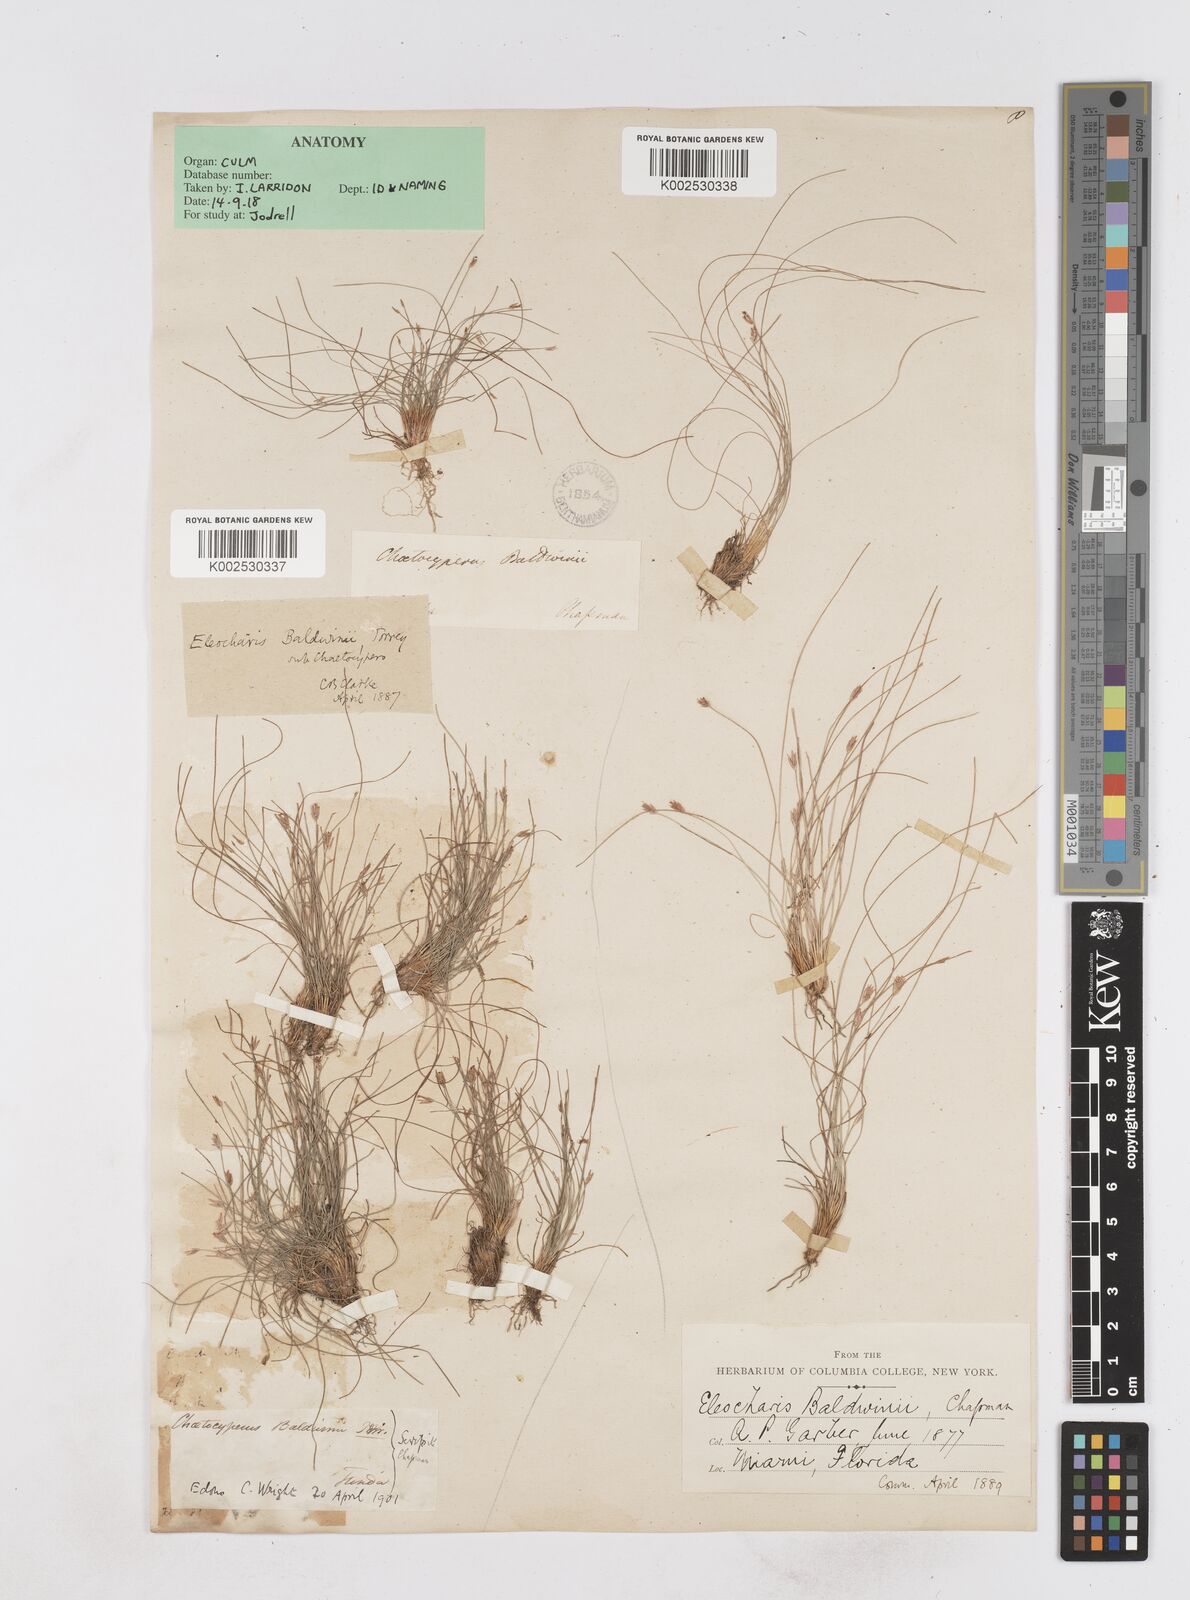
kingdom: Plantae
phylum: Tracheophyta
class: Liliopsida
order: Poales
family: Cyperaceae
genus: Eleocharis
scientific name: Eleocharis baldwinii
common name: Baldwin's spike-rush
